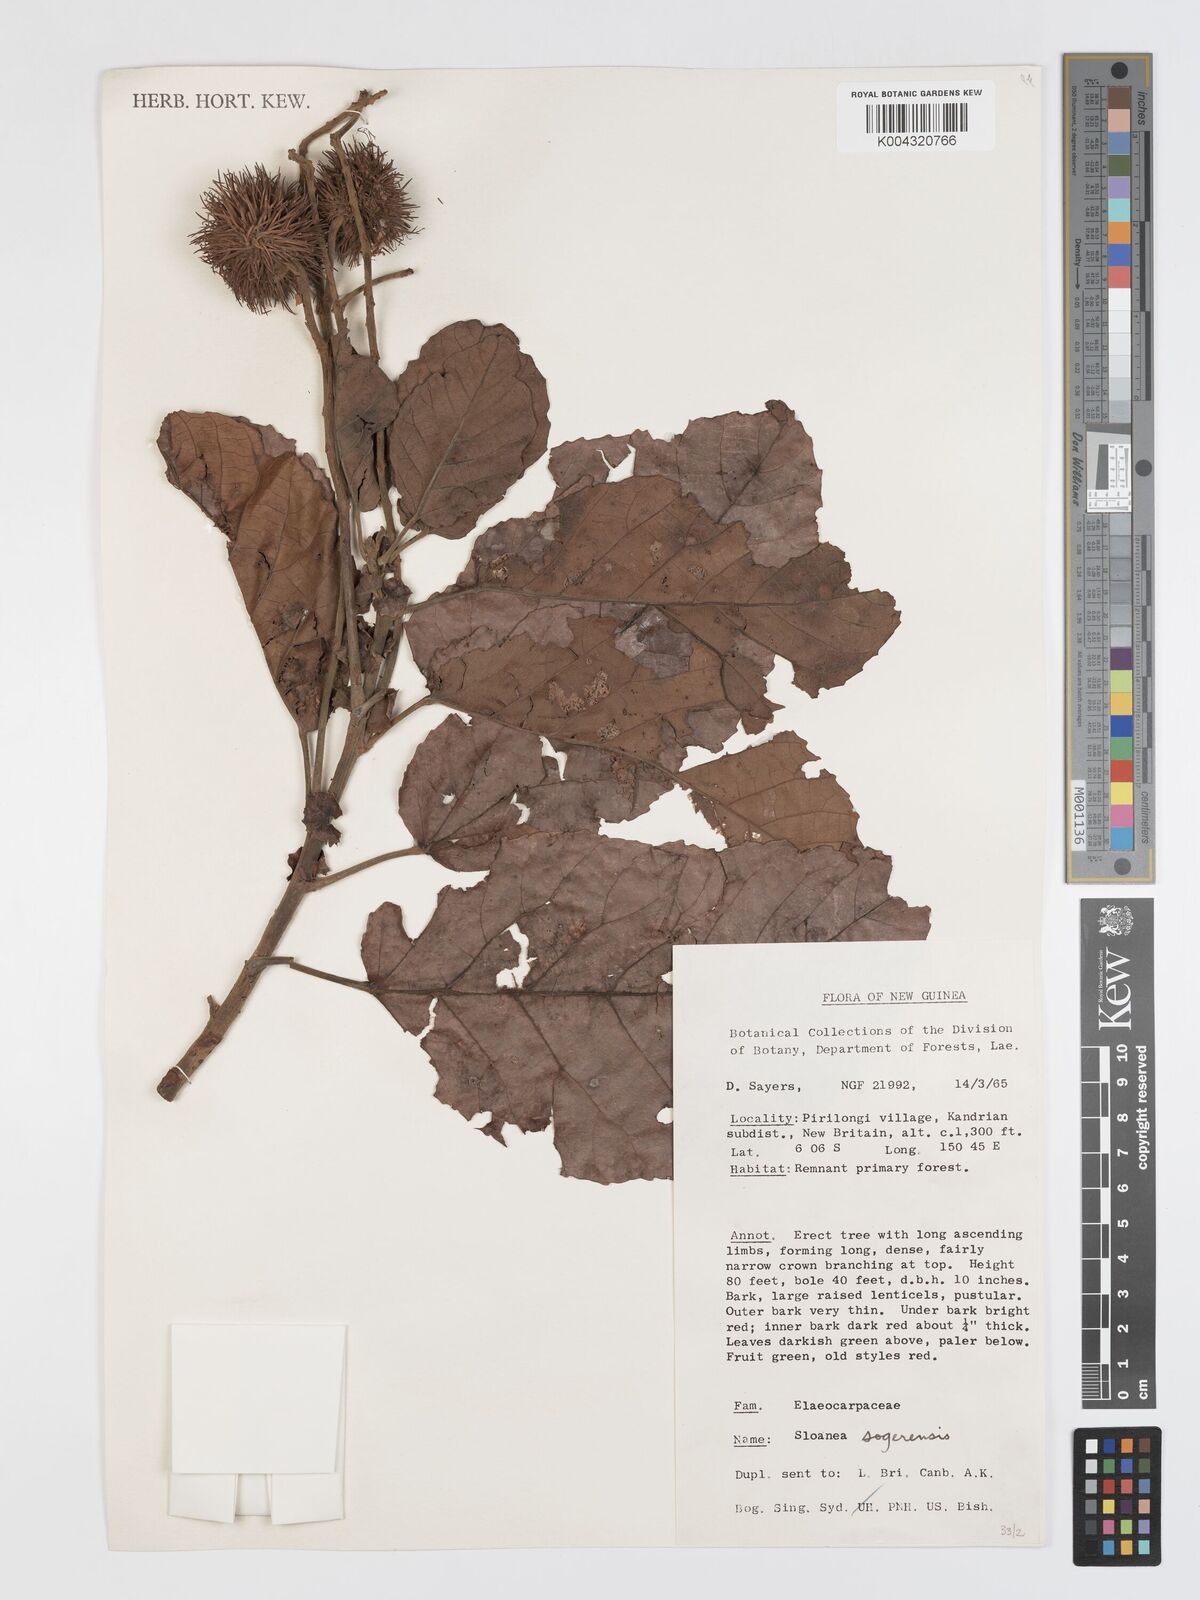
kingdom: Plantae
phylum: Tracheophyta
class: Magnoliopsida
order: Oxalidales
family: Elaeocarpaceae
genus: Sloanea
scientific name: Sloanea sogerensis
